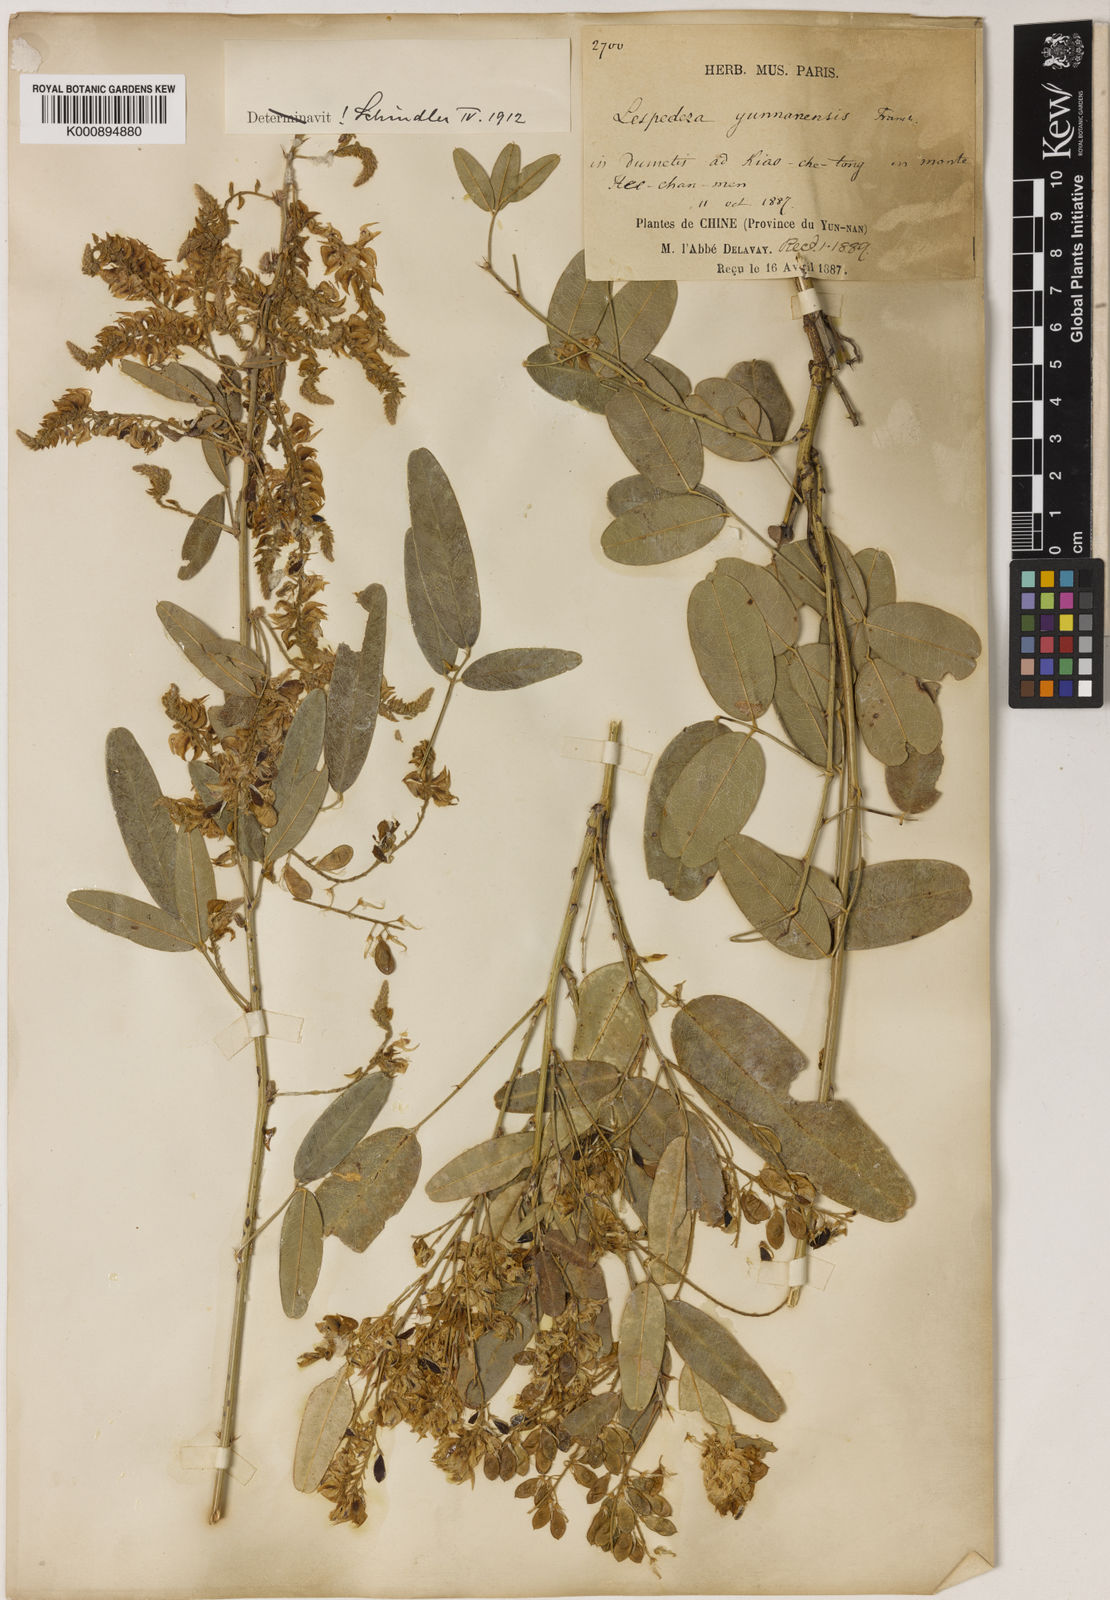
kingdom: Plantae
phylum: Tracheophyta
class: Magnoliopsida
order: Fabales
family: Fabaceae
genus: Campylotropis
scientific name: Campylotropis yunnanensis
